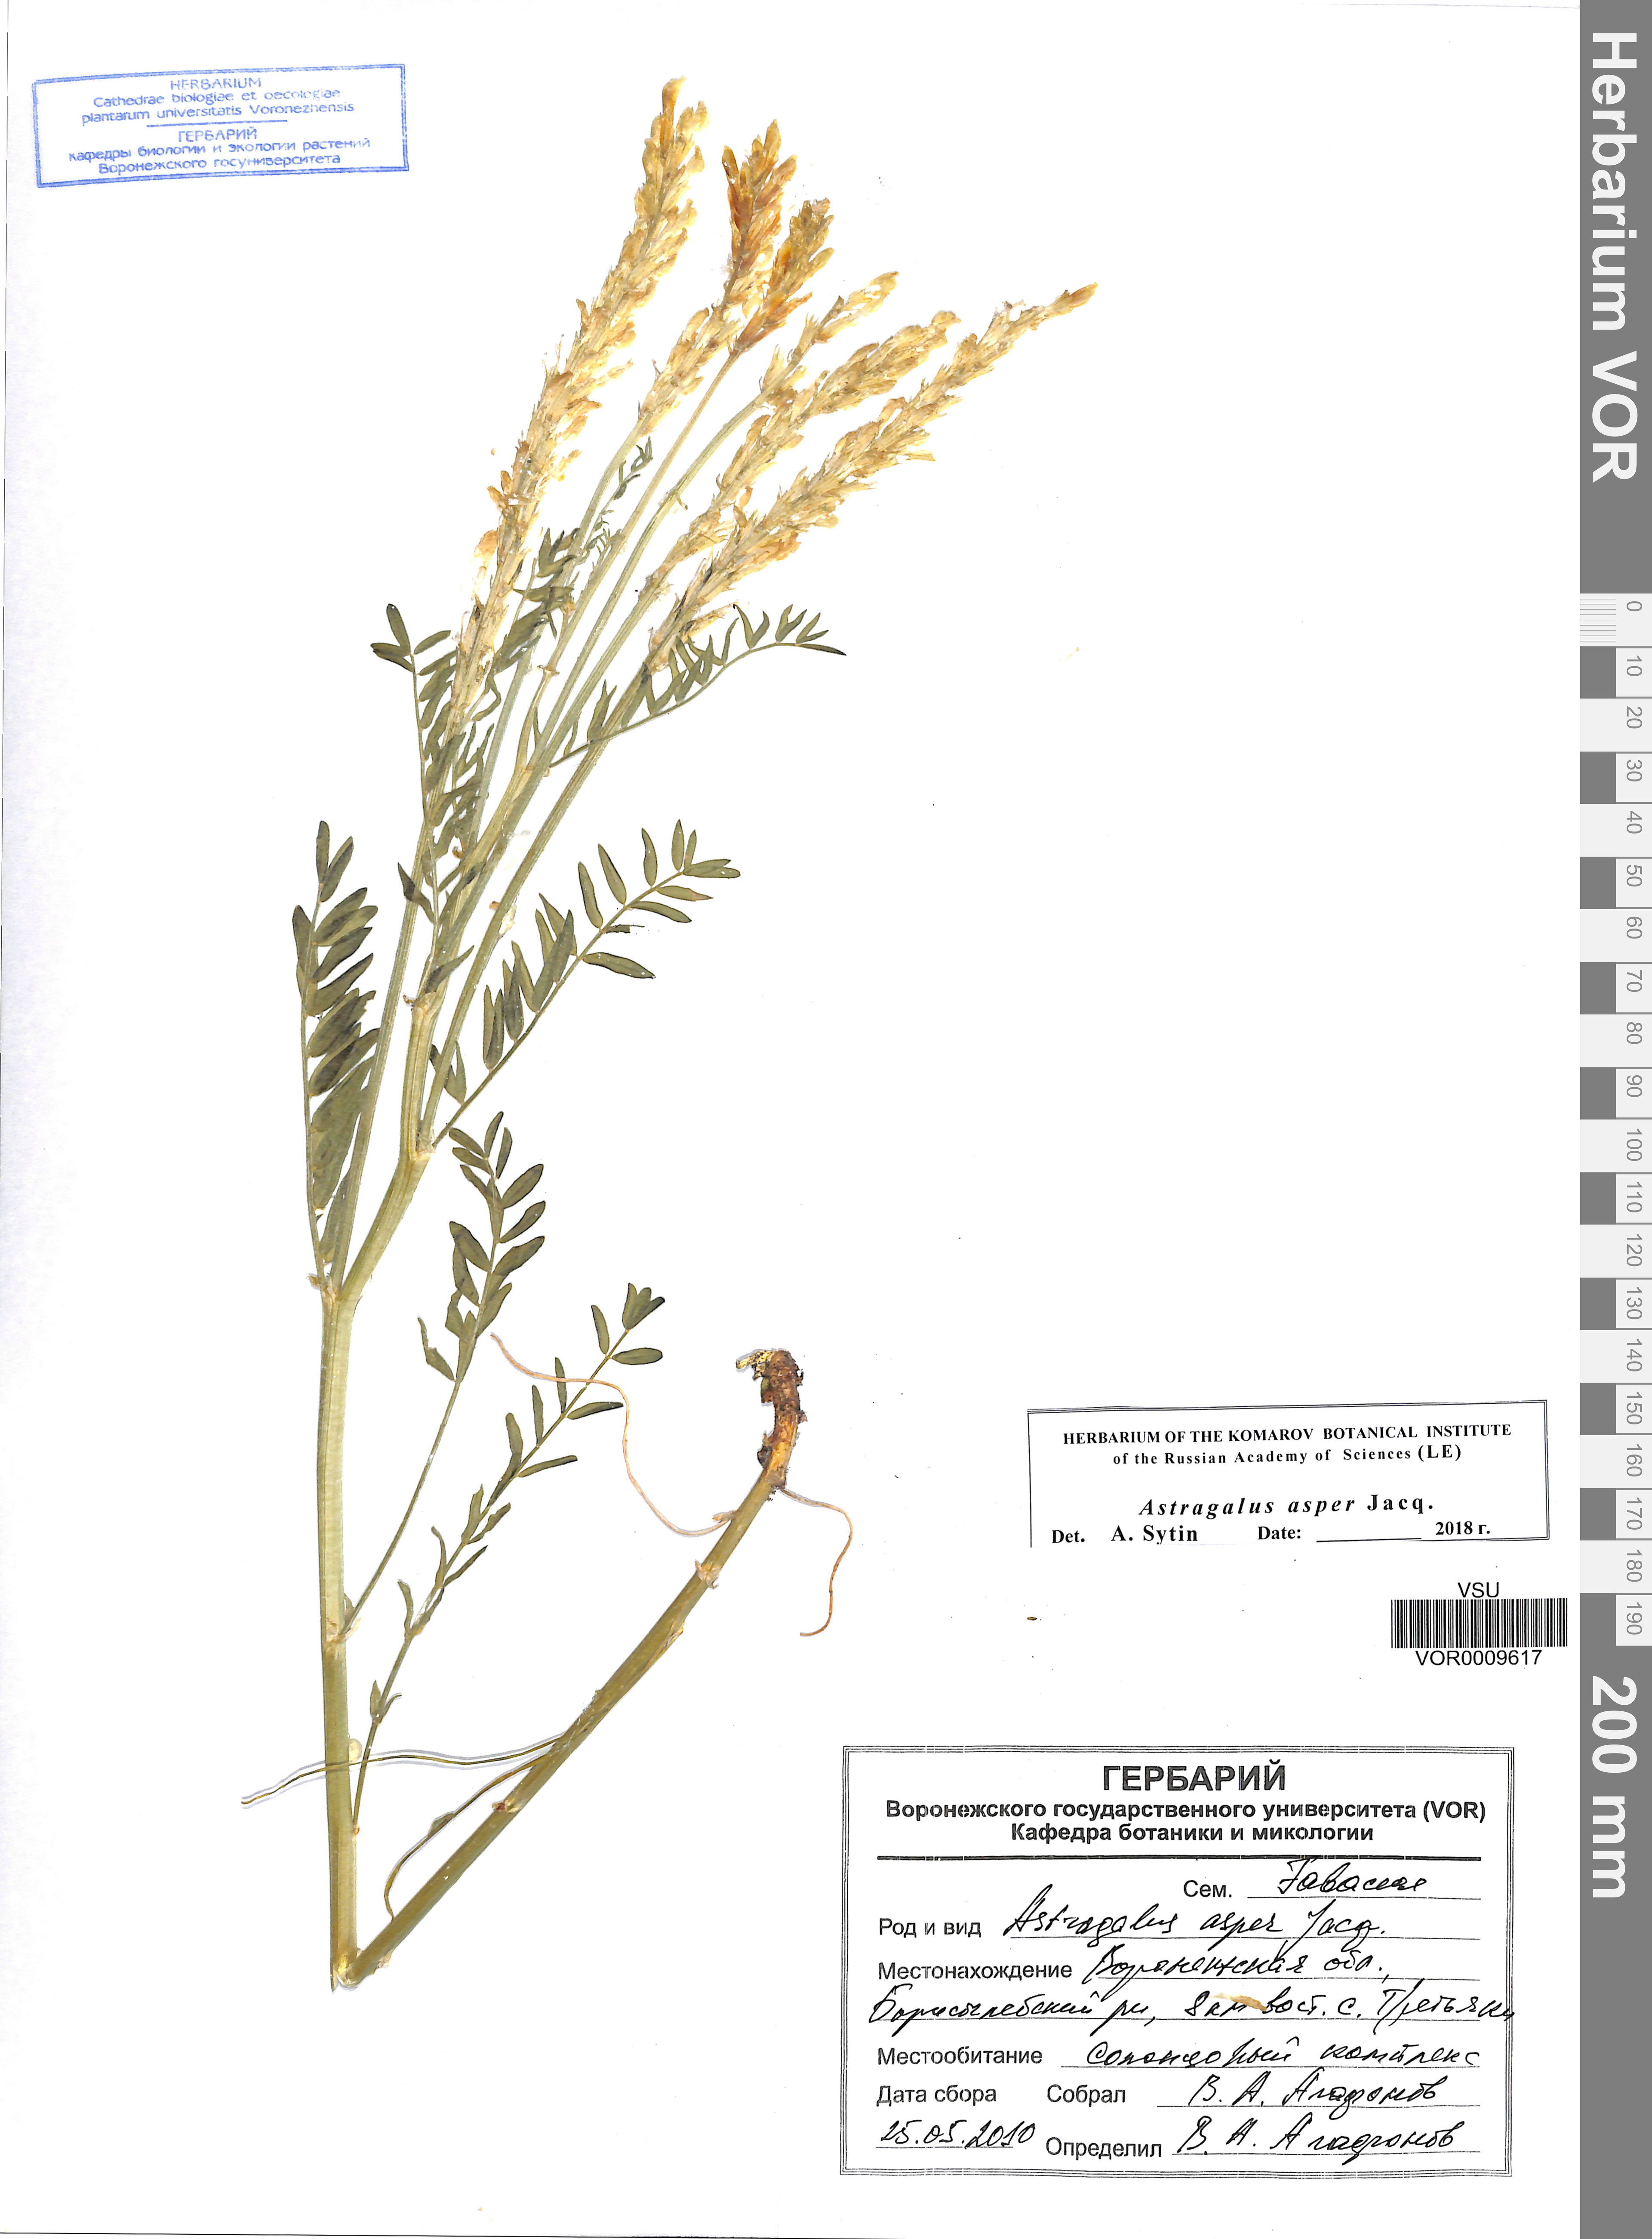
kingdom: Plantae
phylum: Tracheophyta
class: Magnoliopsida
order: Fabales
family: Fabaceae
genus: Astragalus
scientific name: Astragalus asper
